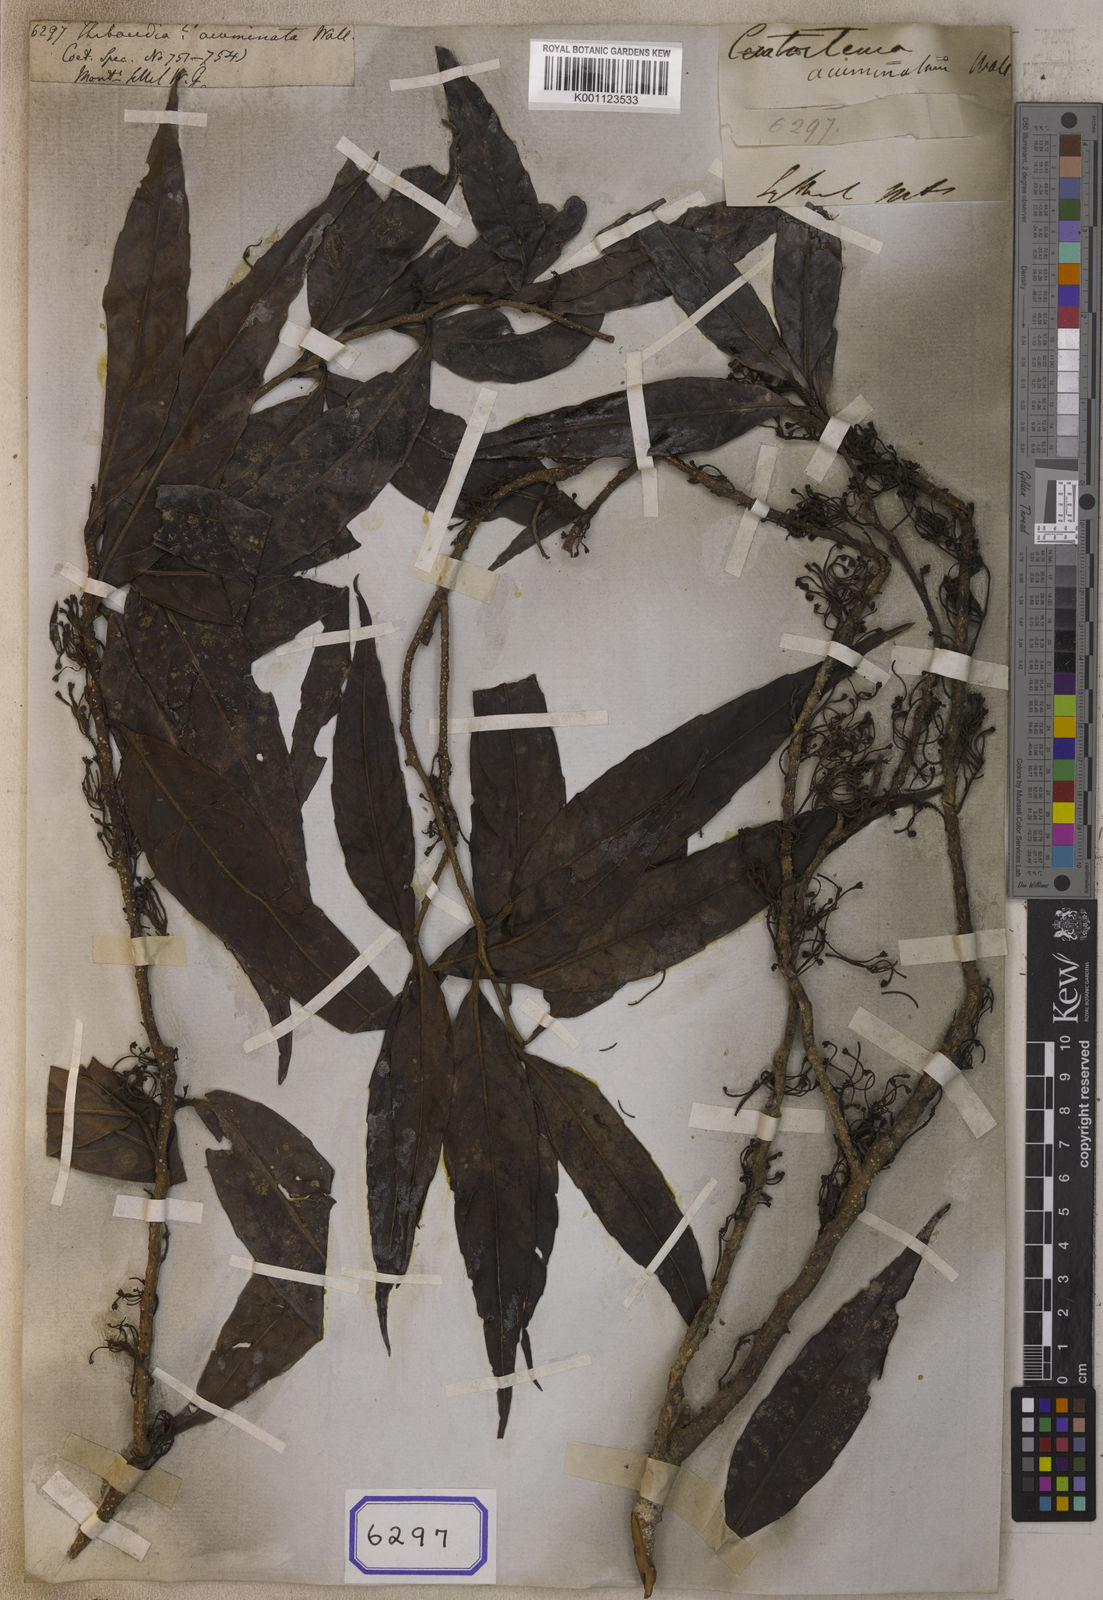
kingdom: Plantae
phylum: Tracheophyta
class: Magnoliopsida
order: Ericales
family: Ericaceae
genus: Agapetes
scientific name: Agapetes acuminata
